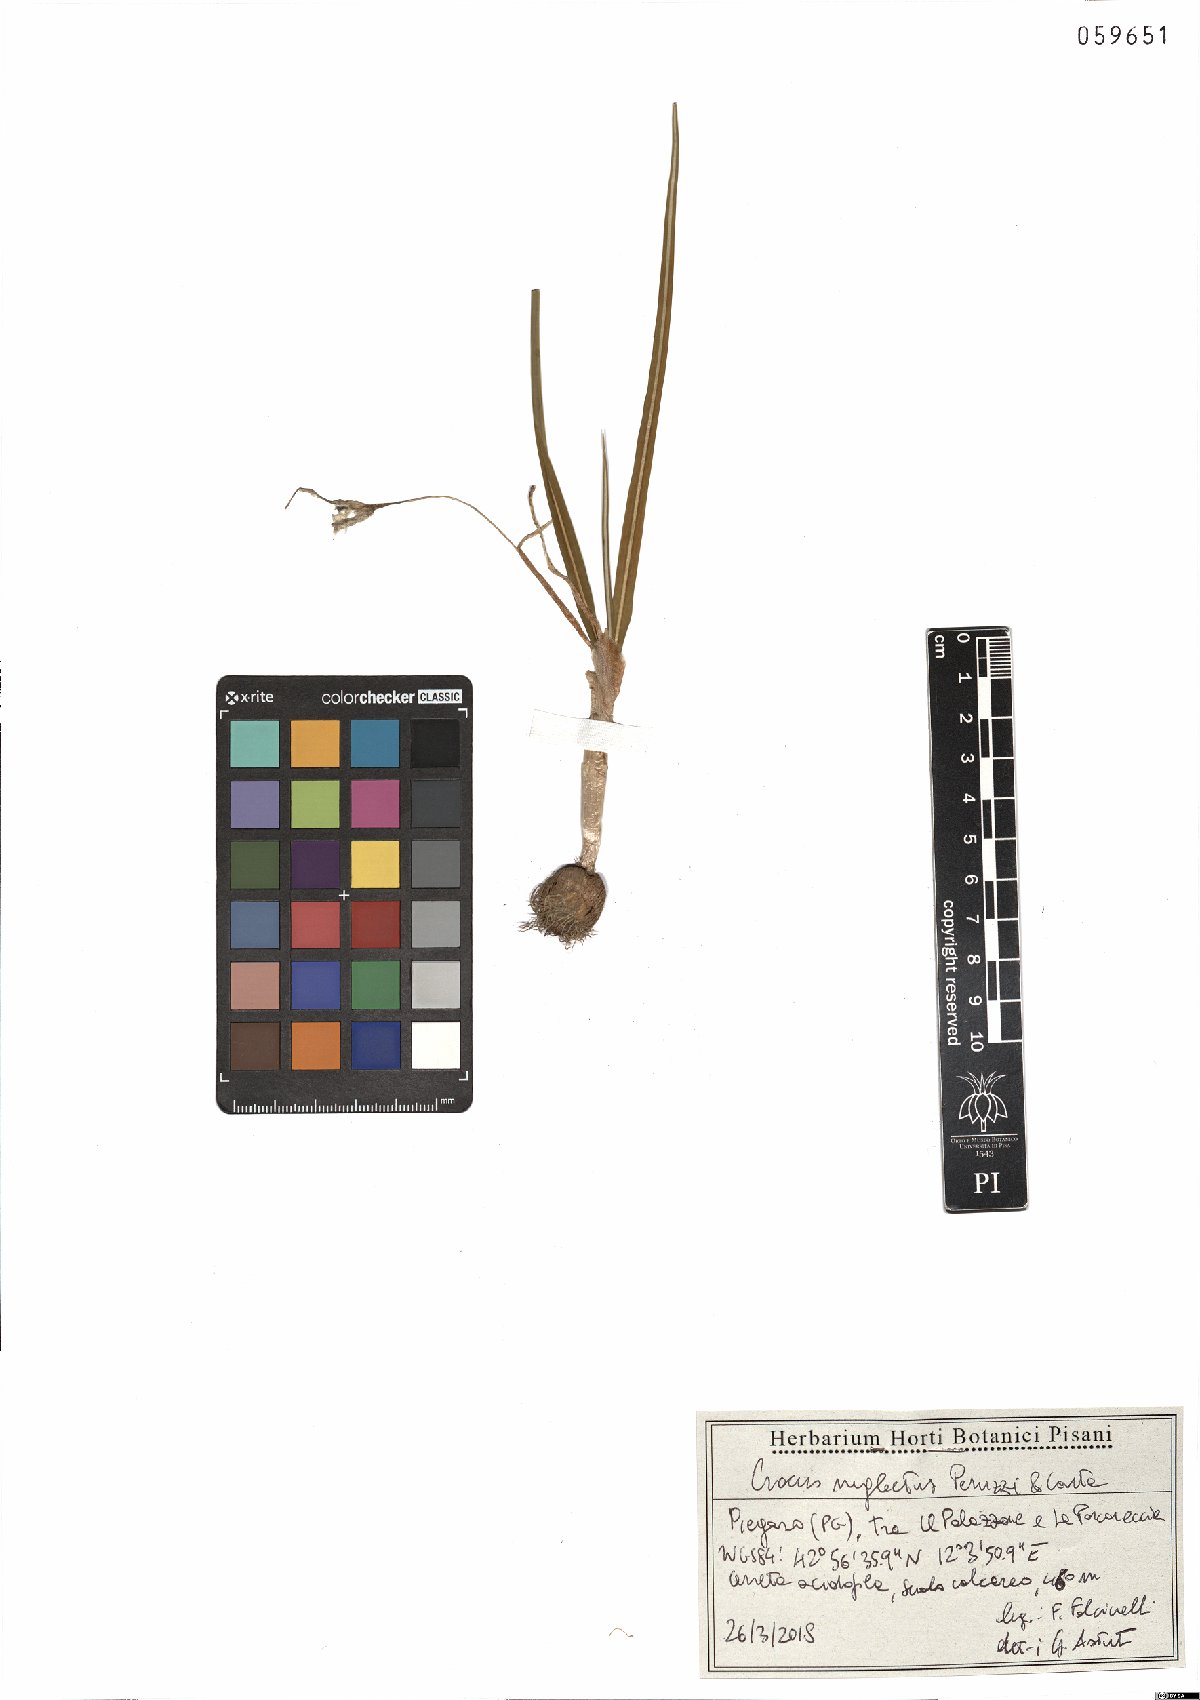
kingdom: Plantae
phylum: Tracheophyta
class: Liliopsida
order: Asparagales
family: Iridaceae
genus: Crocus
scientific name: Crocus neglectus
